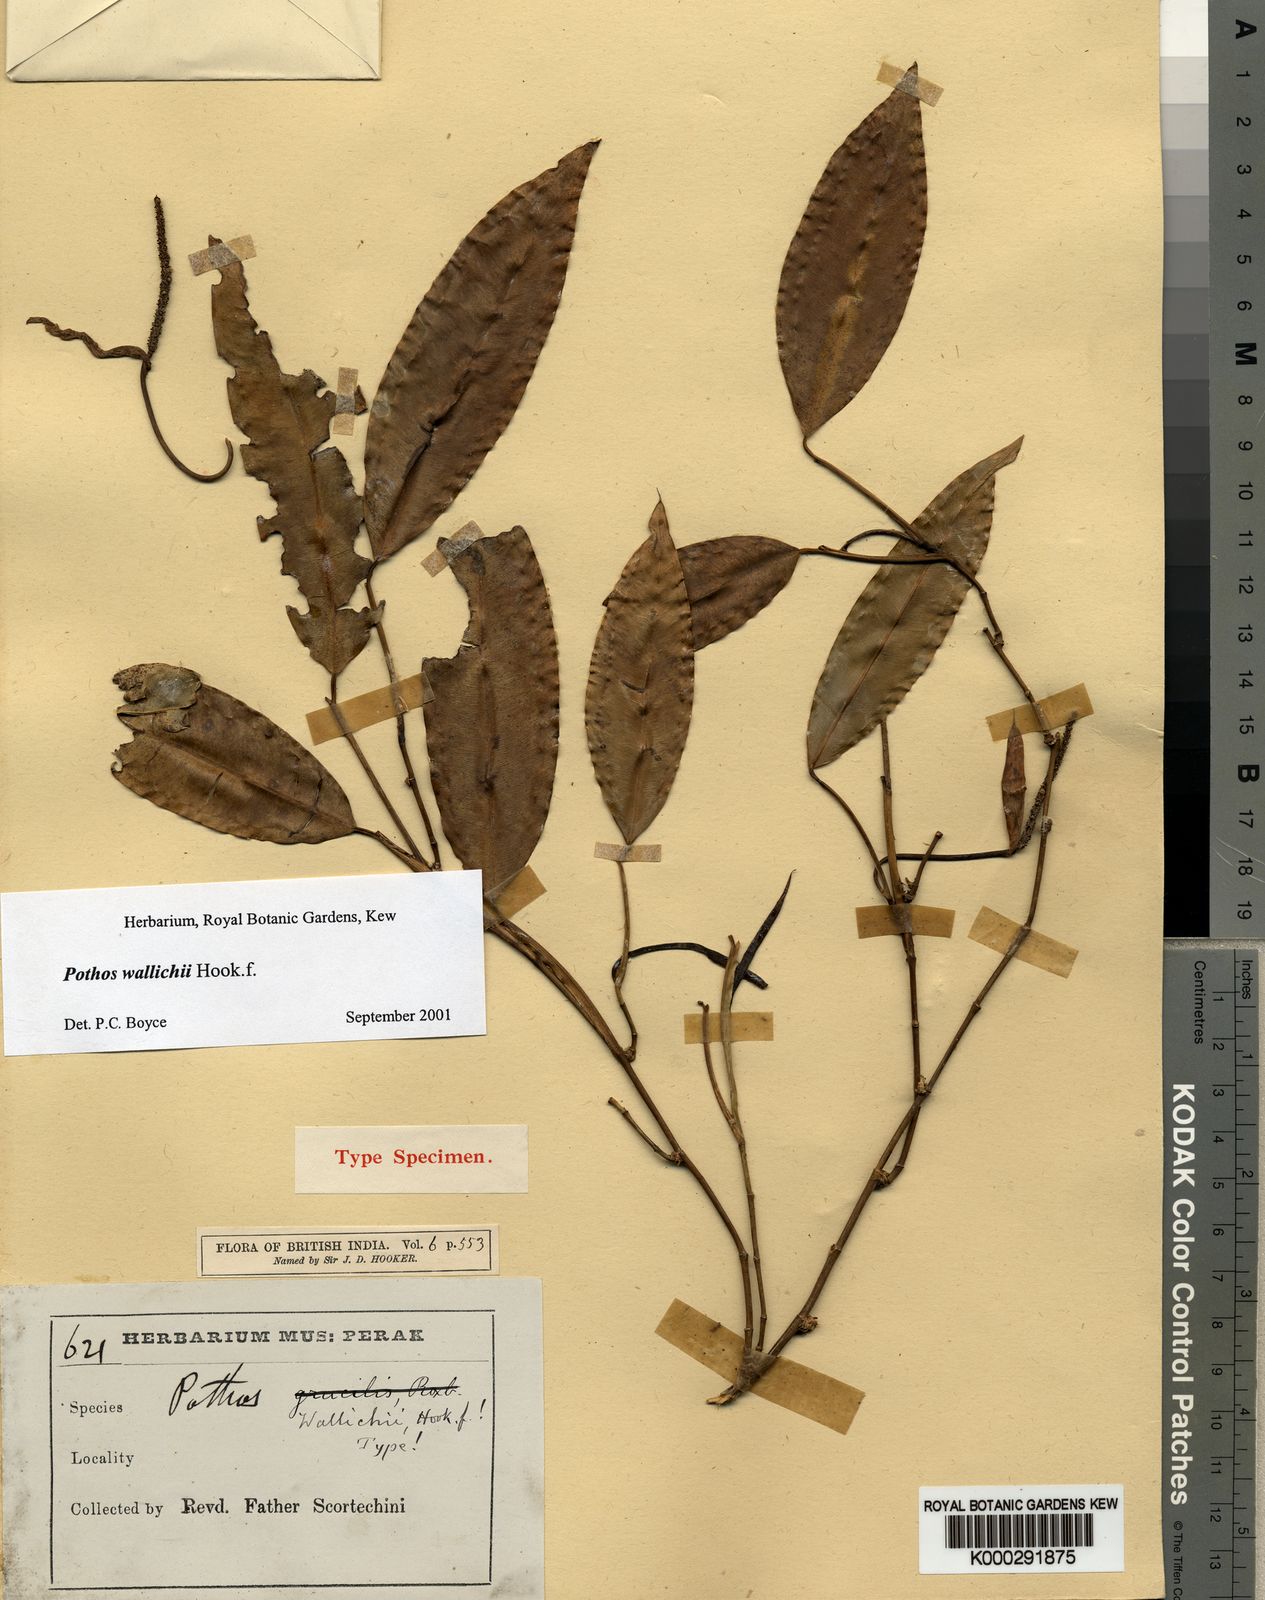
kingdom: Plantae
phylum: Tracheophyta
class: Liliopsida
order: Alismatales
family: Araceae
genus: Pothos
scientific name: Pothos wallichii
